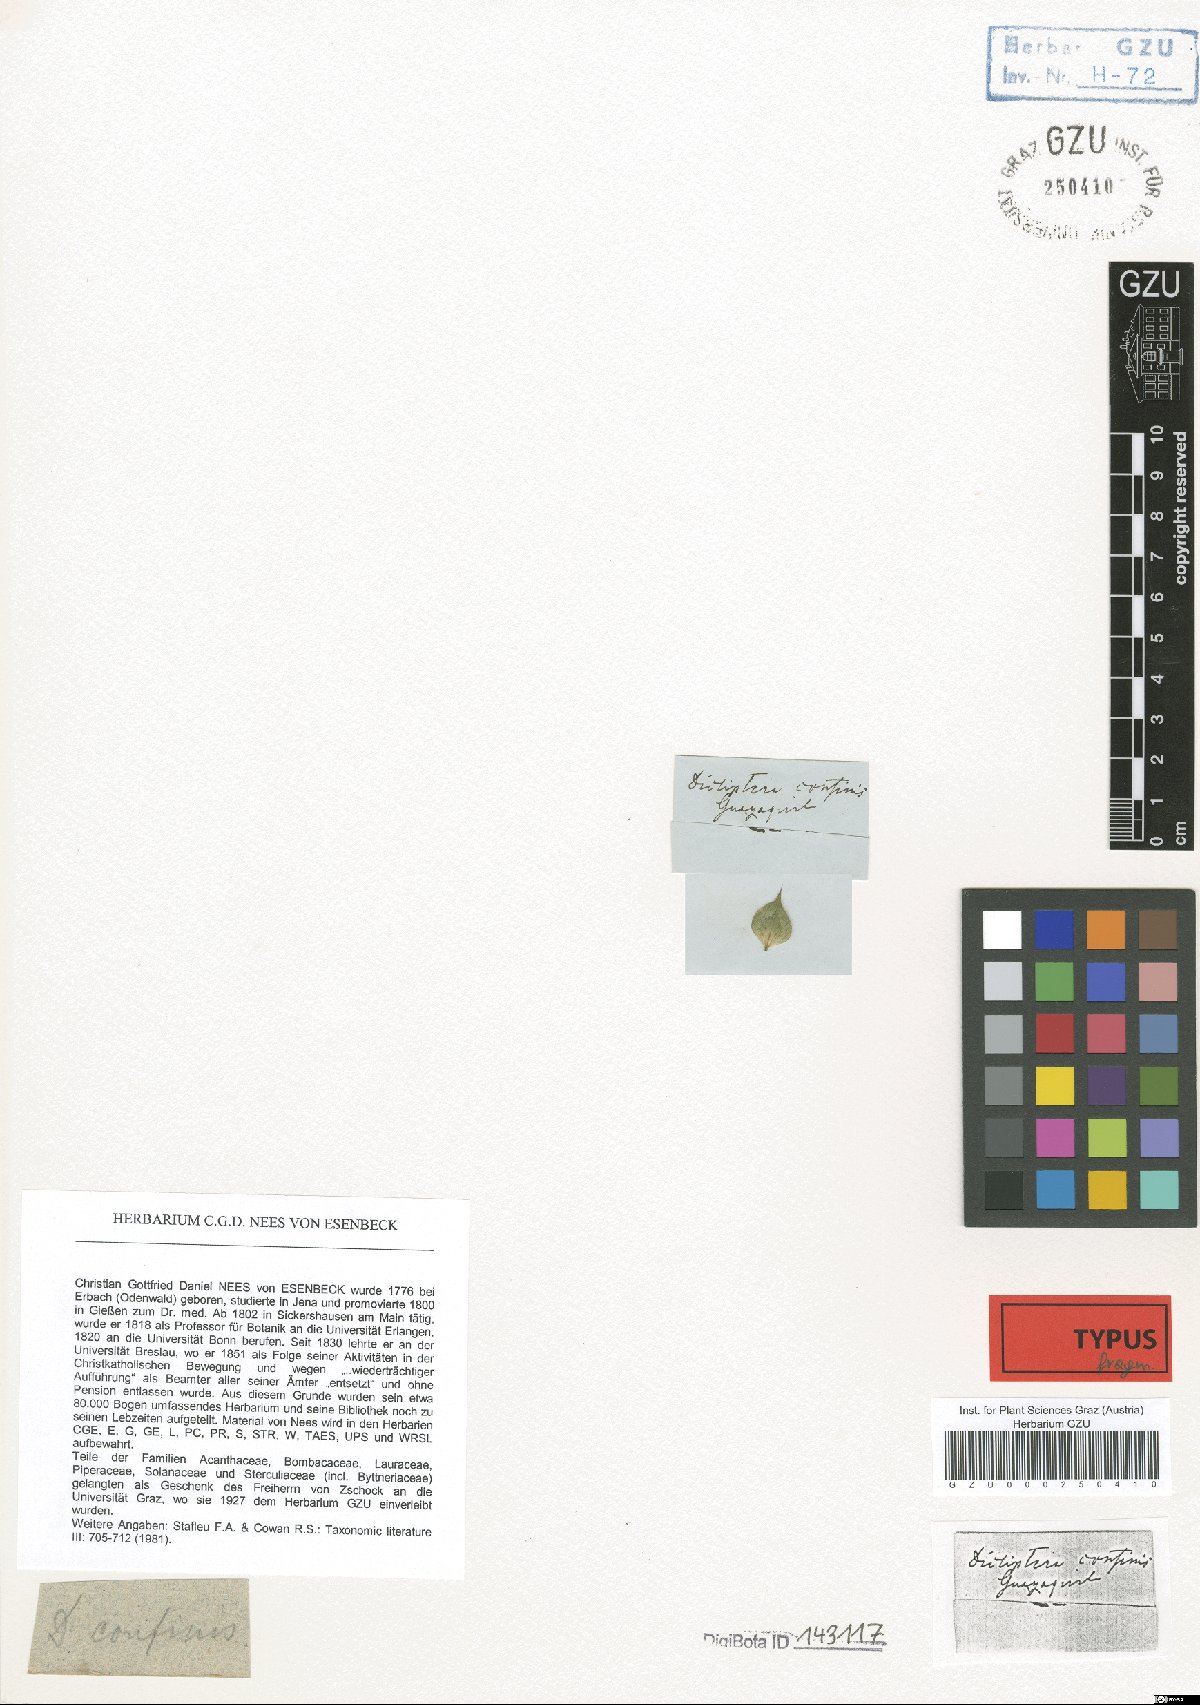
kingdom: Plantae
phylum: Tracheophyta
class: Magnoliopsida
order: Lamiales
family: Acanthaceae
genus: Dicliptera
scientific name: Dicliptera peruviana
